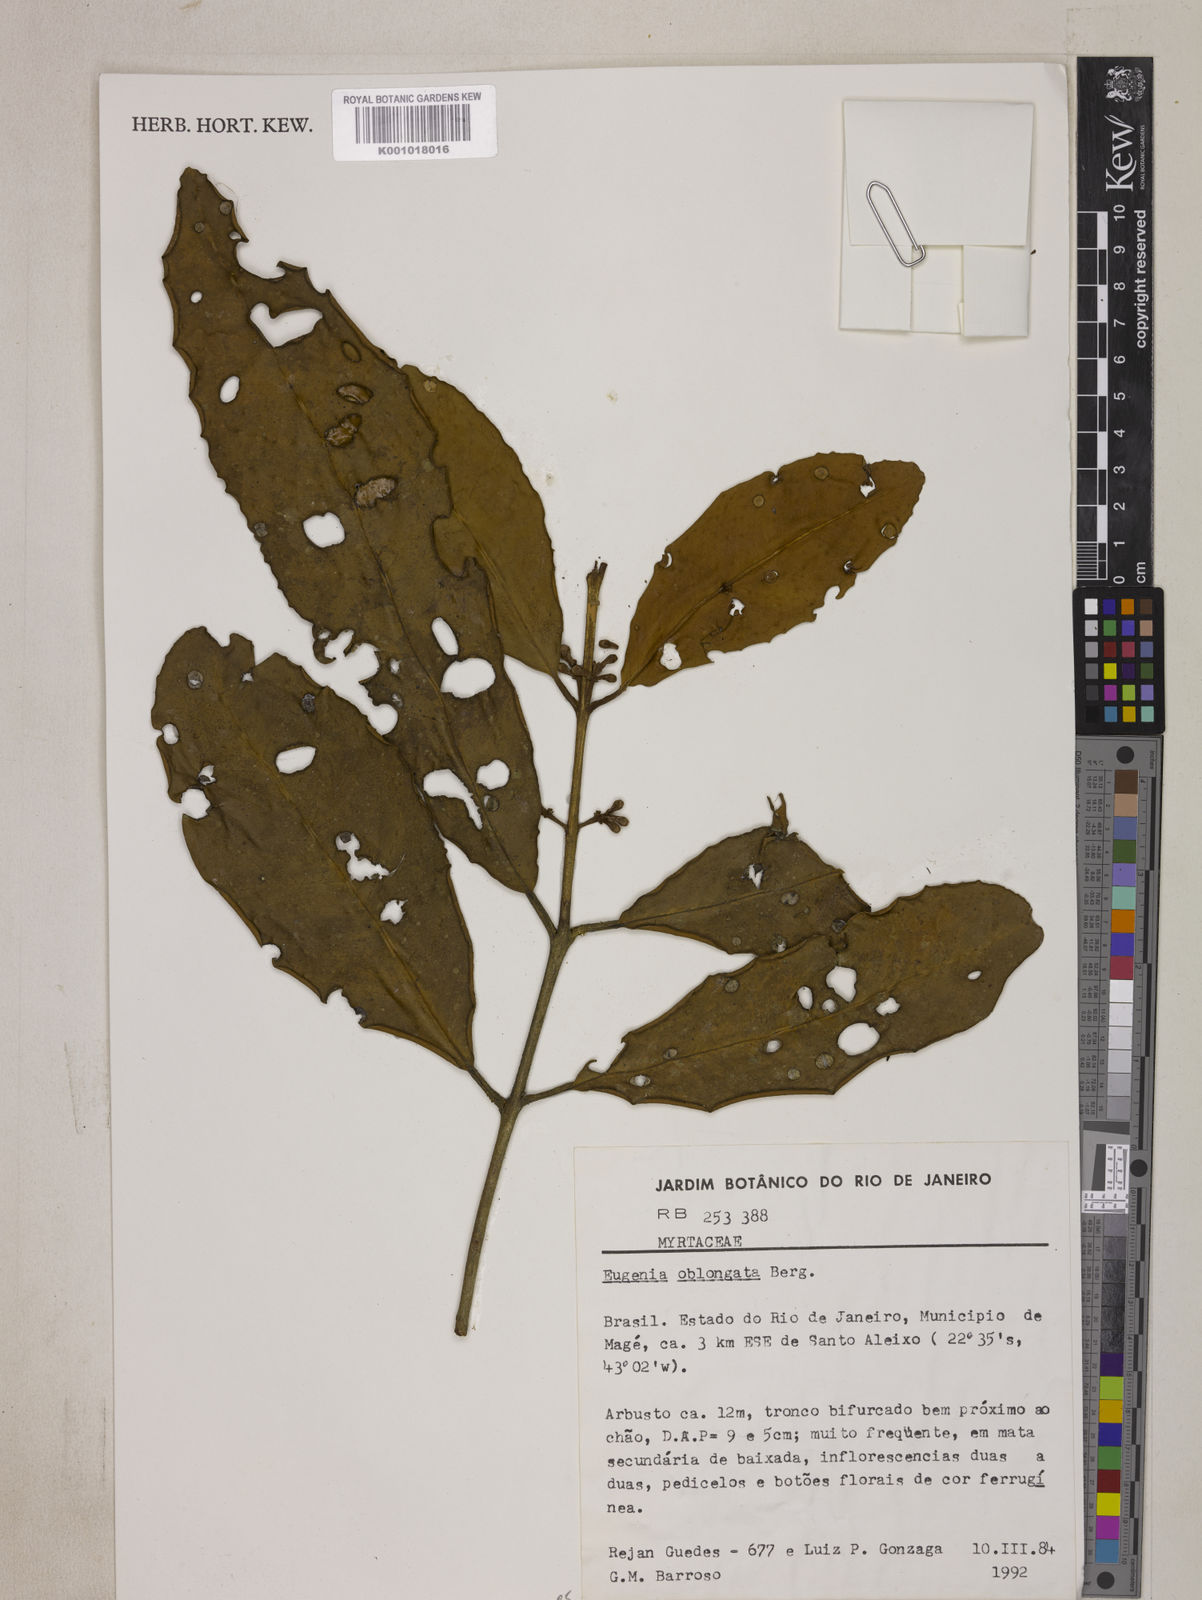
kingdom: Plantae
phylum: Tracheophyta
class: Magnoliopsida
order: Myrtales
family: Myrtaceae
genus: Eugenia
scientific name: Eugenia oblongata
